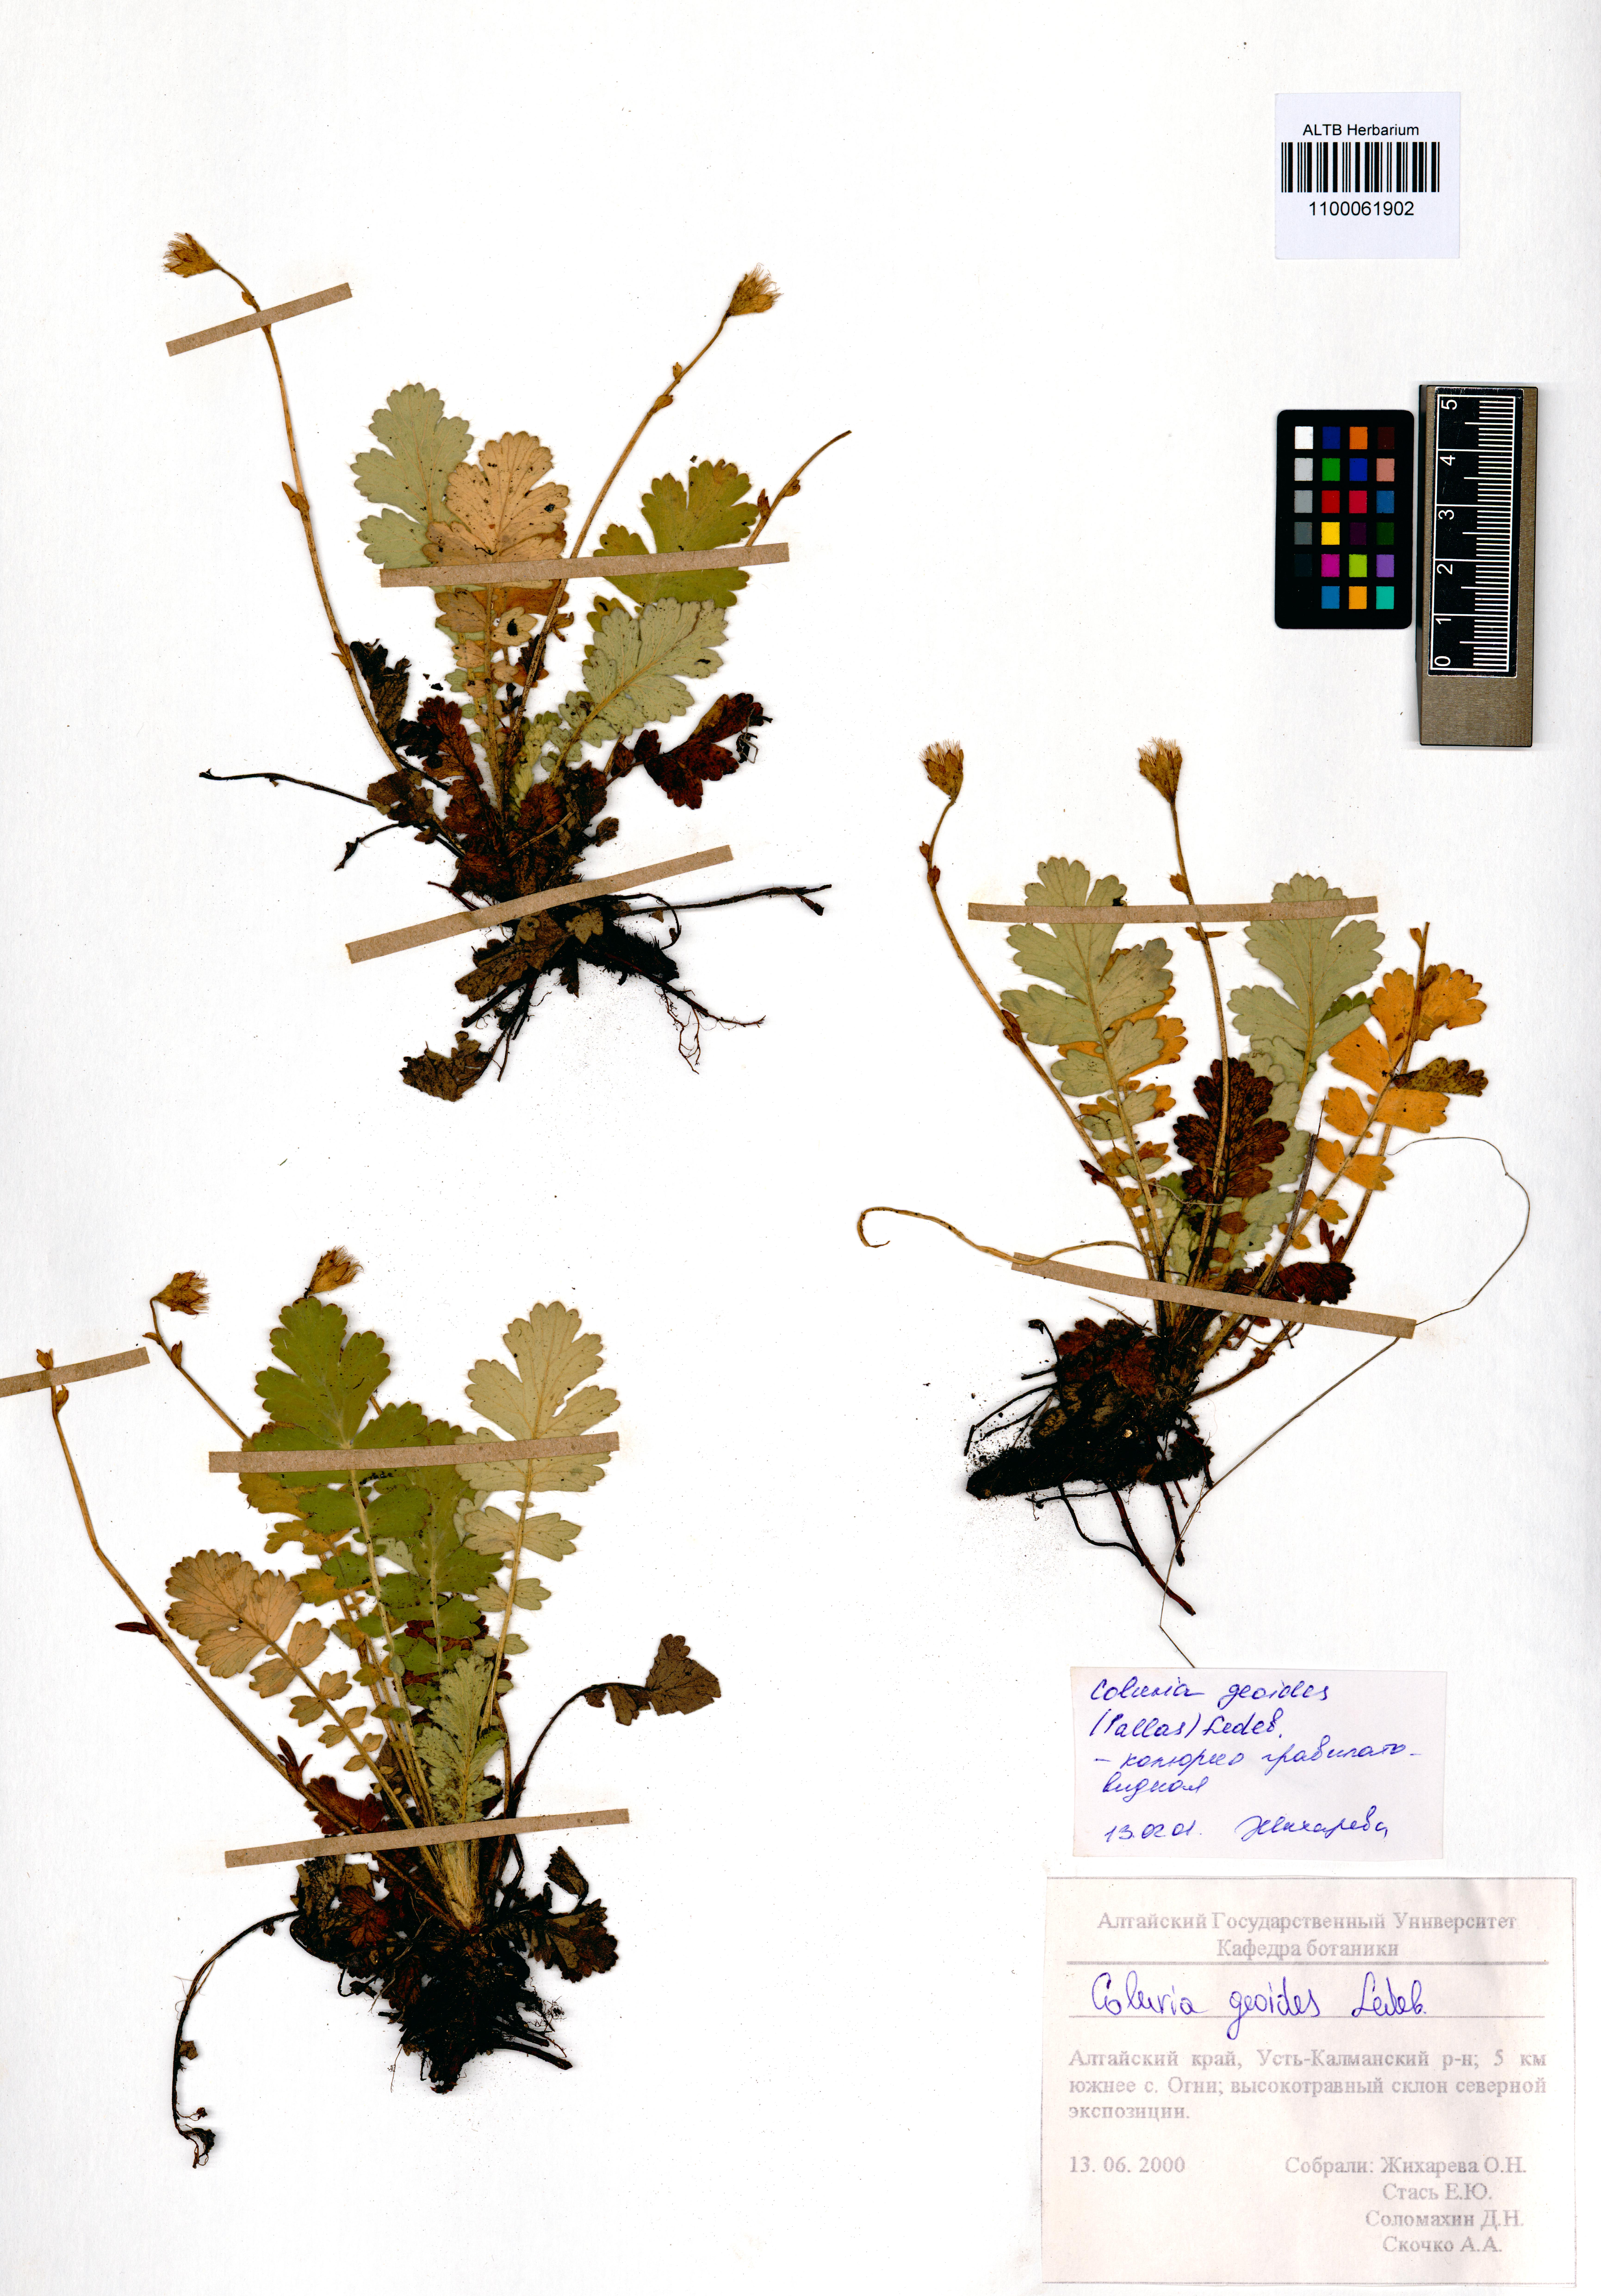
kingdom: Plantae
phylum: Tracheophyta
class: Magnoliopsida
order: Rosales
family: Rosaceae
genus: Geum
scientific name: Geum geoides
